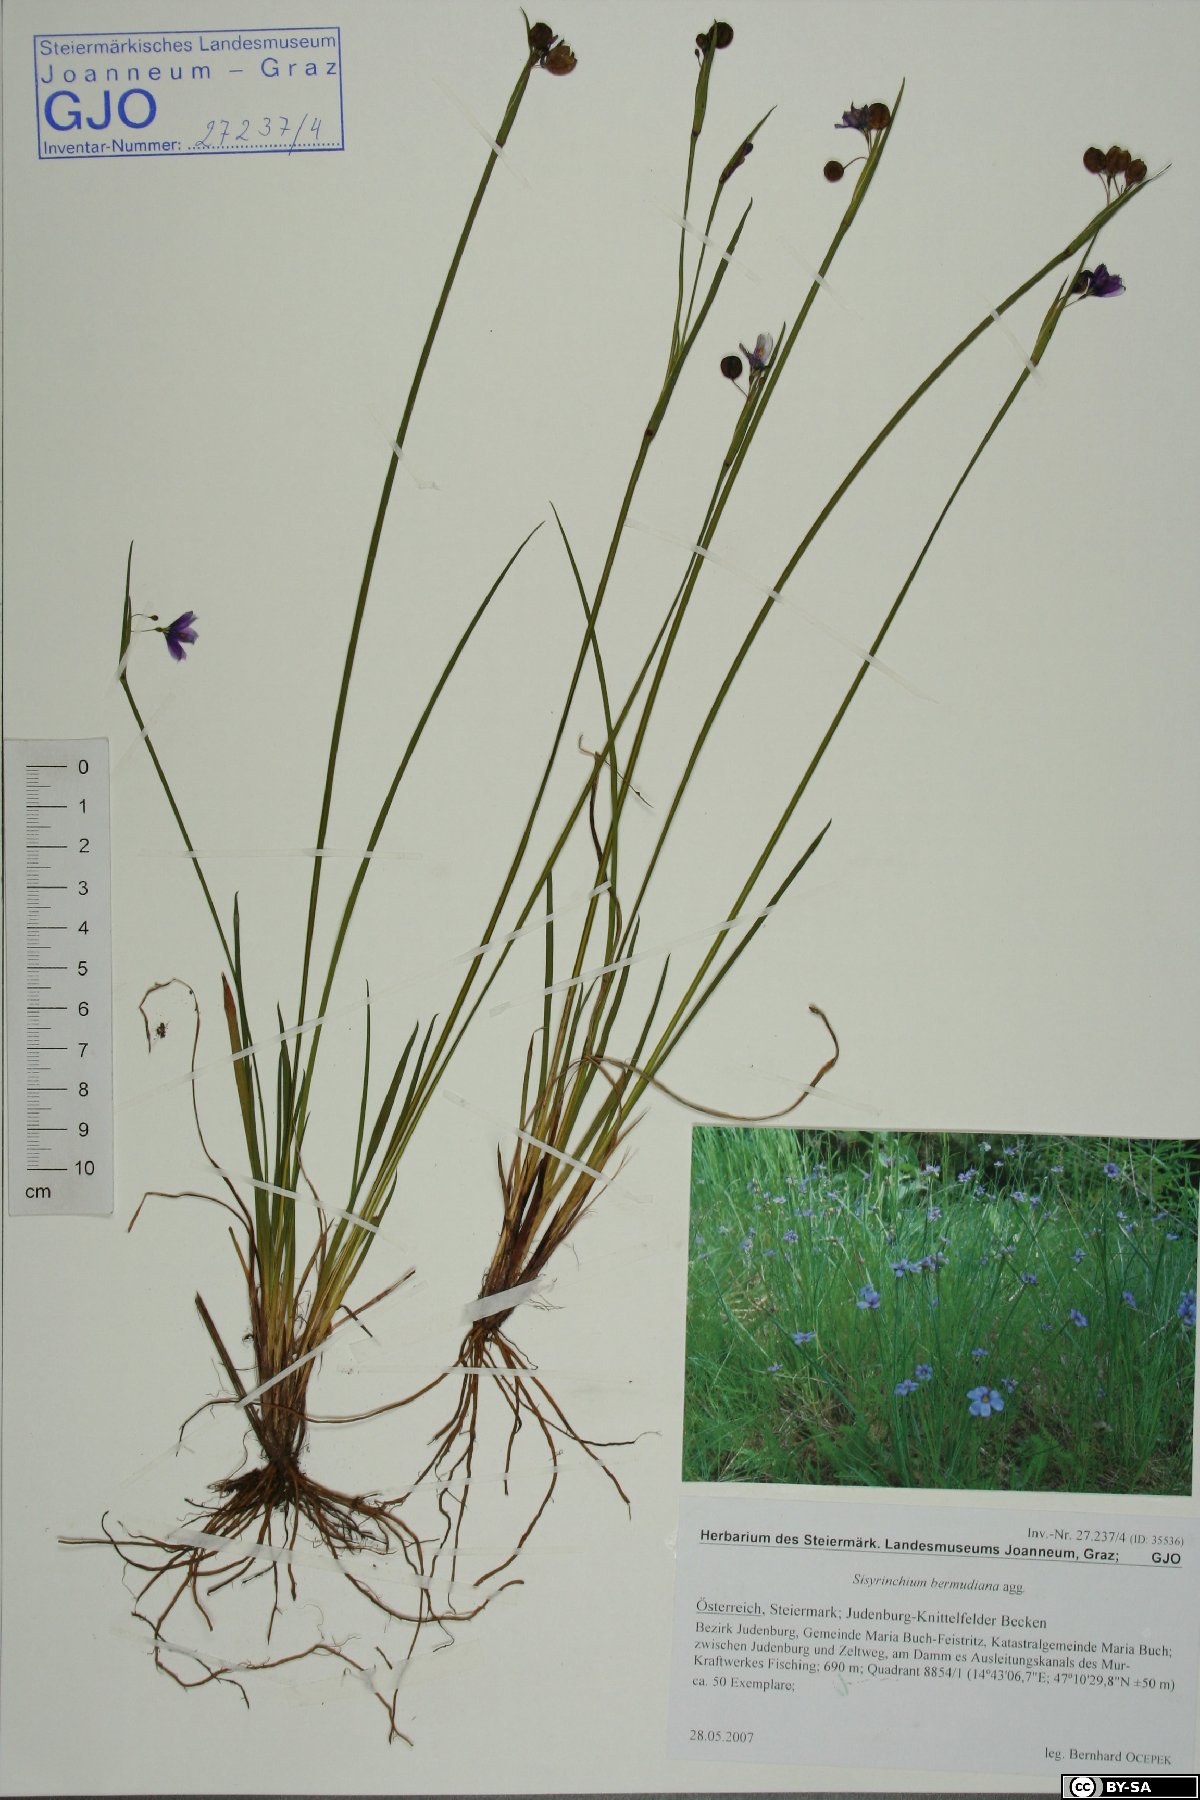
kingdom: Plantae
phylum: Tracheophyta
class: Liliopsida
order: Asparagales
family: Iridaceae
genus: Sisyrinchium
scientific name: Sisyrinchium bermudiana
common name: Blue-eyed-grass
